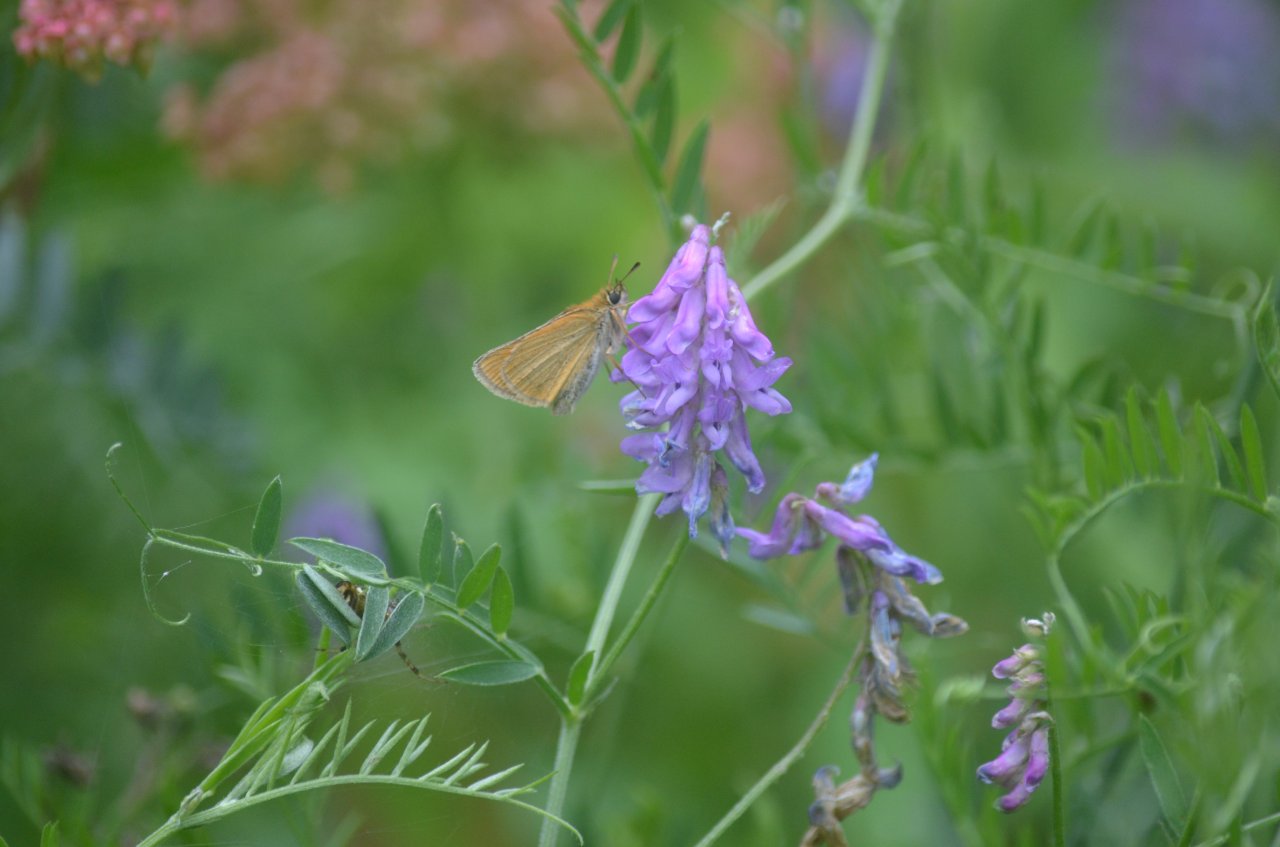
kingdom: Animalia
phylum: Arthropoda
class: Insecta
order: Lepidoptera
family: Hesperiidae
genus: Thymelicus
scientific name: Thymelicus lineola
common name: European Skipper
